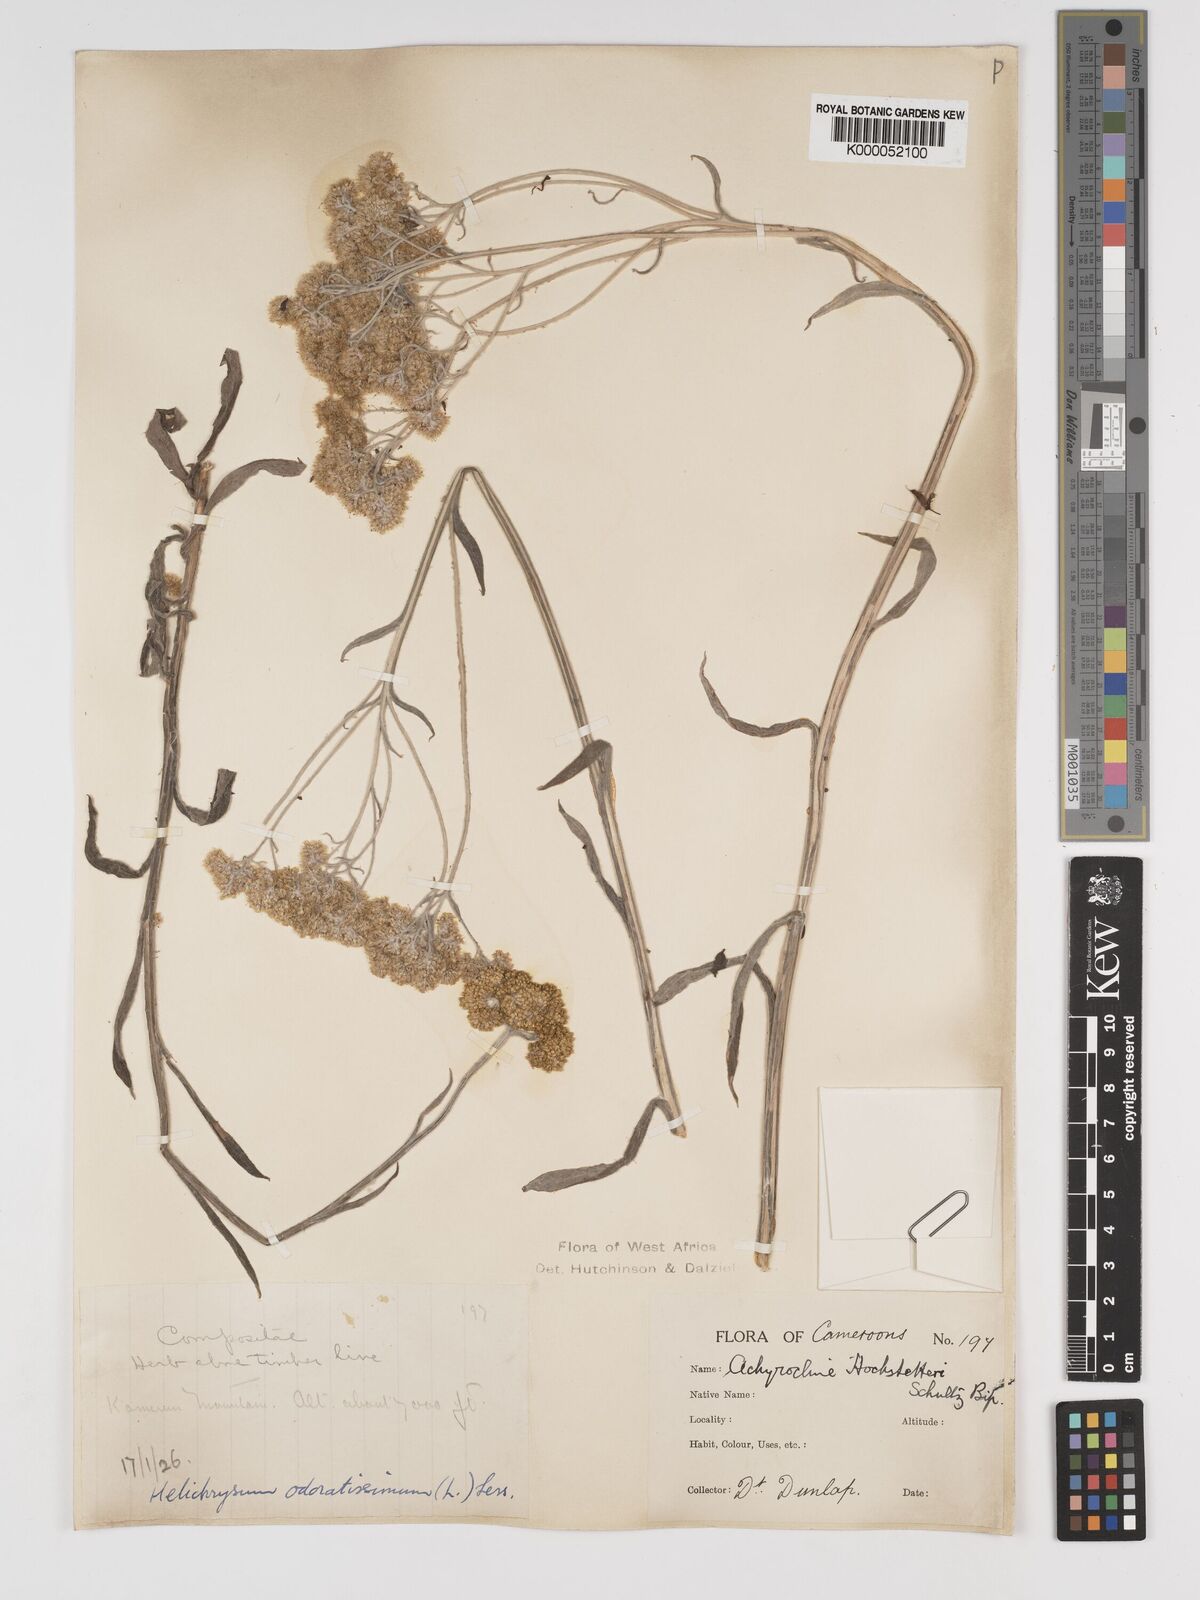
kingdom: Plantae
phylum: Tracheophyta
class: Magnoliopsida
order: Asterales
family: Asteraceae
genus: Helichrysum
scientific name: Helichrysum odoratissimum
